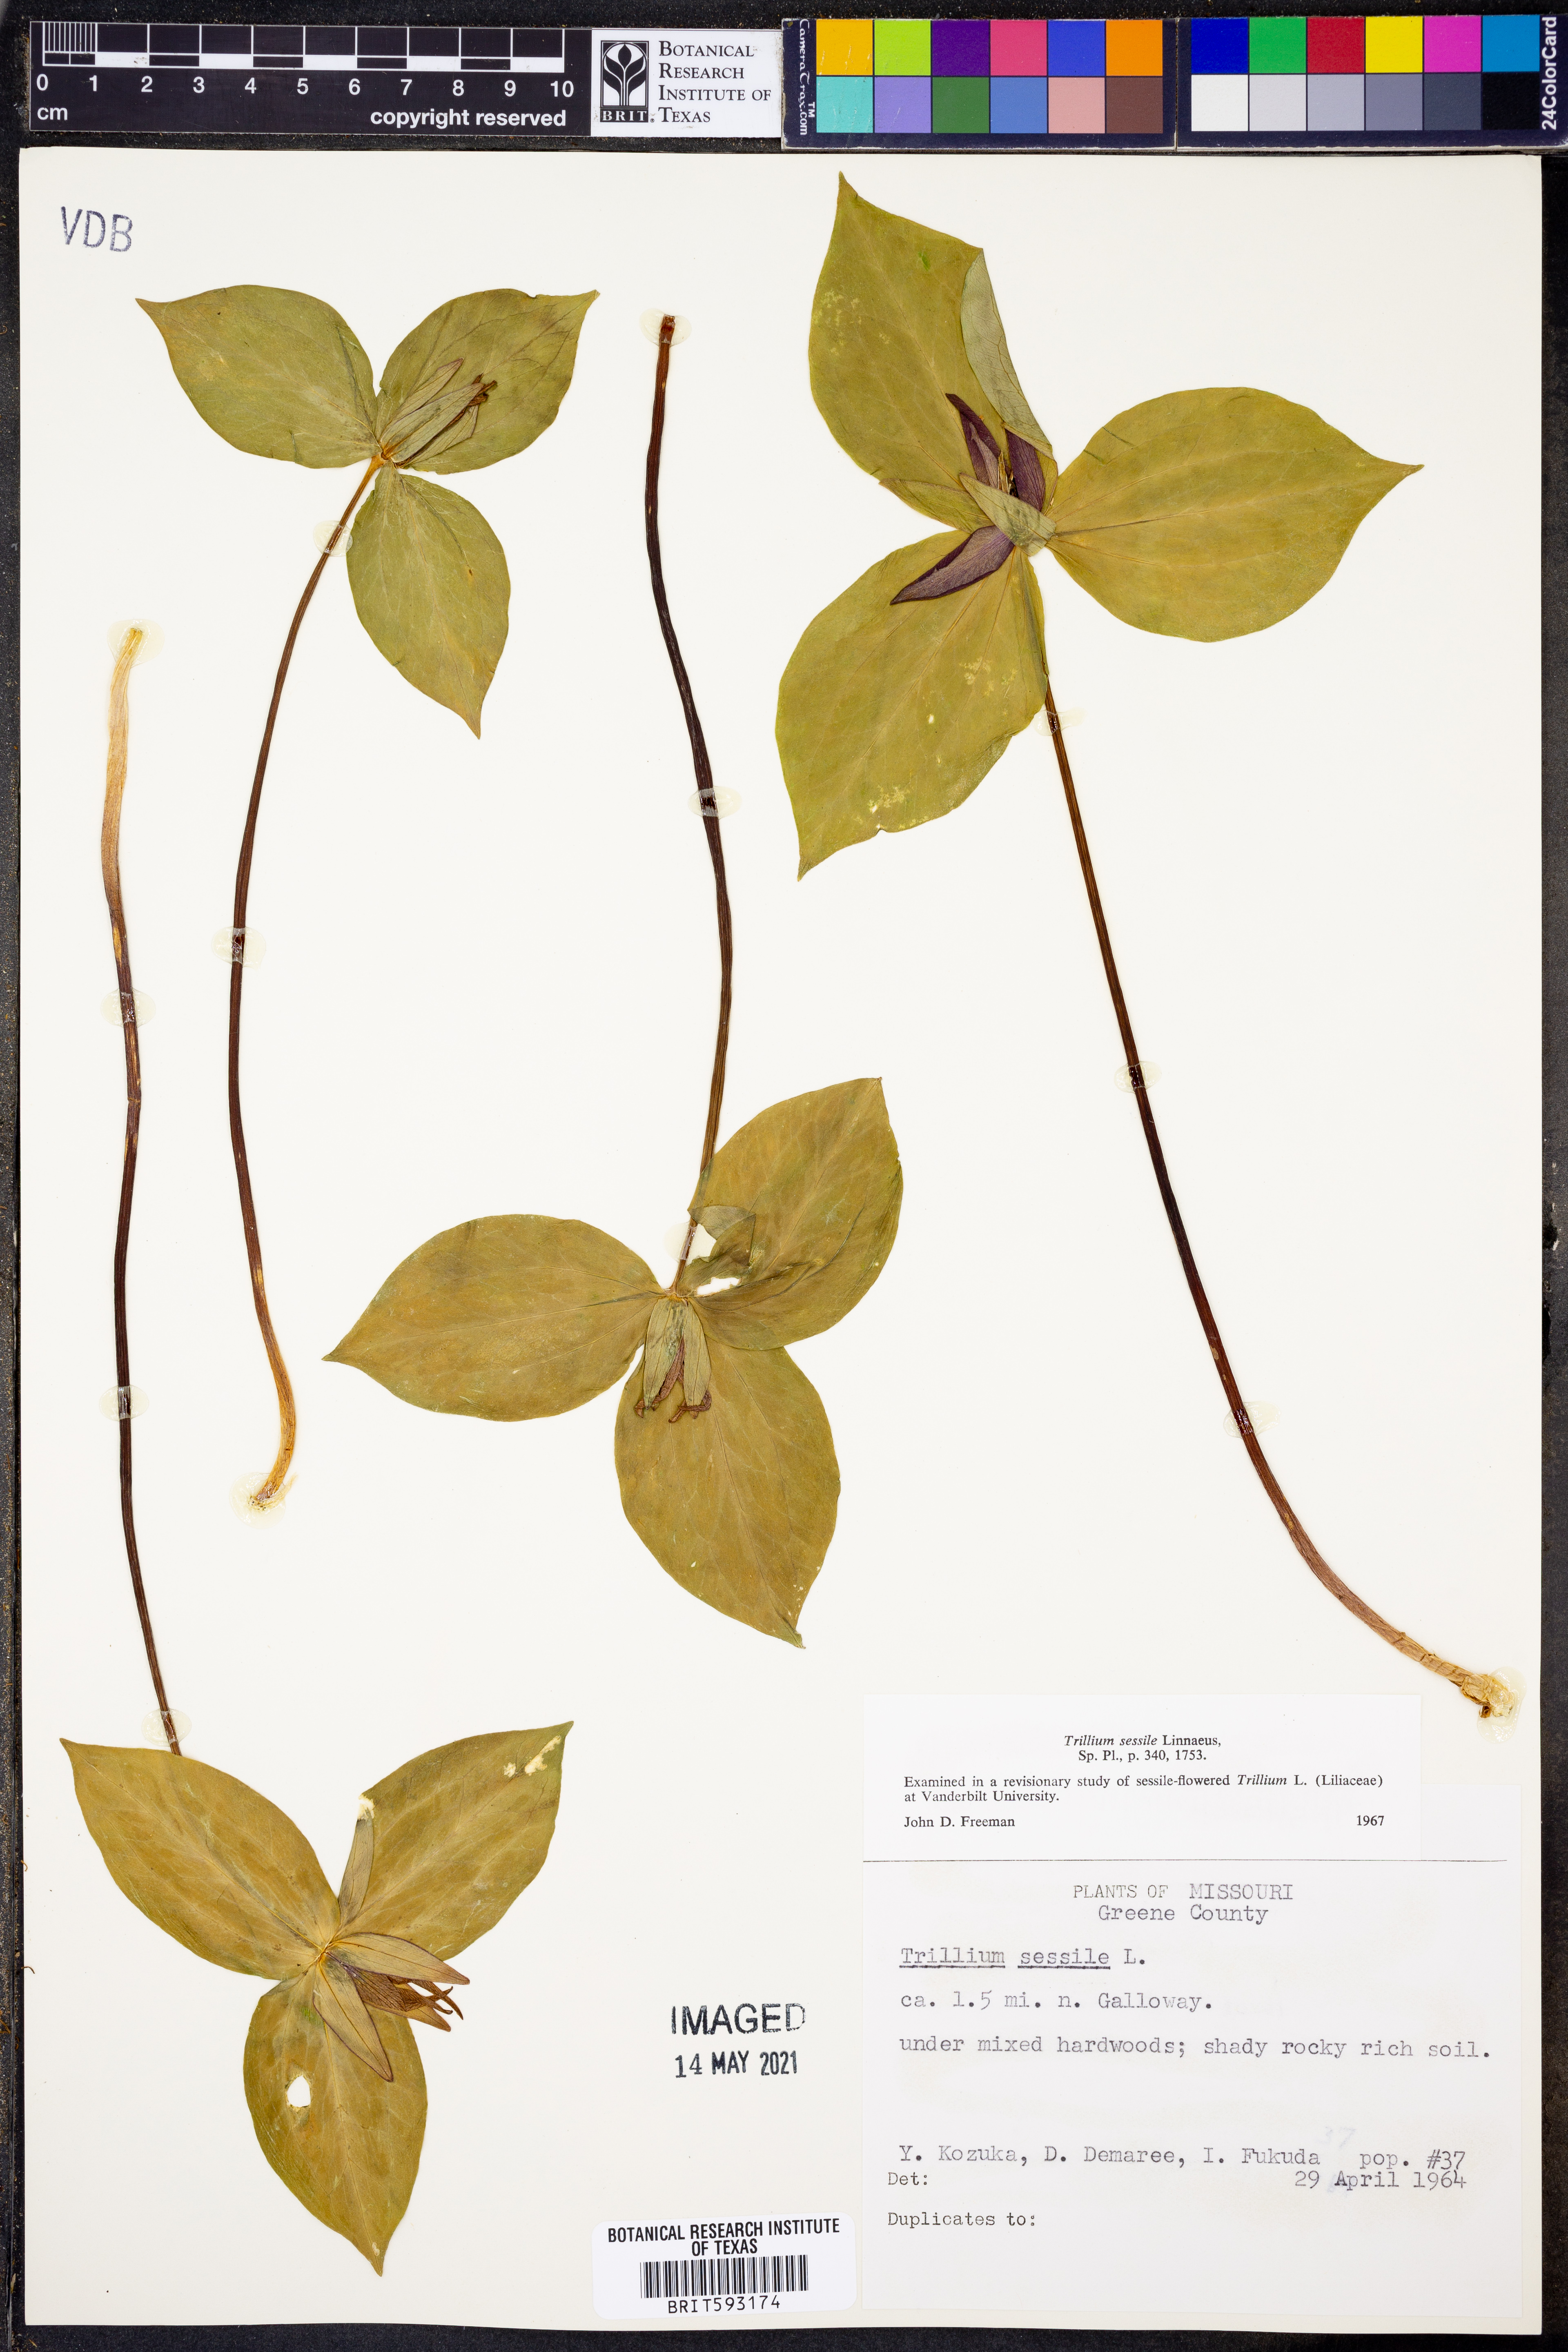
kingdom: Plantae
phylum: Tracheophyta
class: Liliopsida
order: Liliales
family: Melanthiaceae
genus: Trillium
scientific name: Trillium sessile
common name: Sessile trillium
